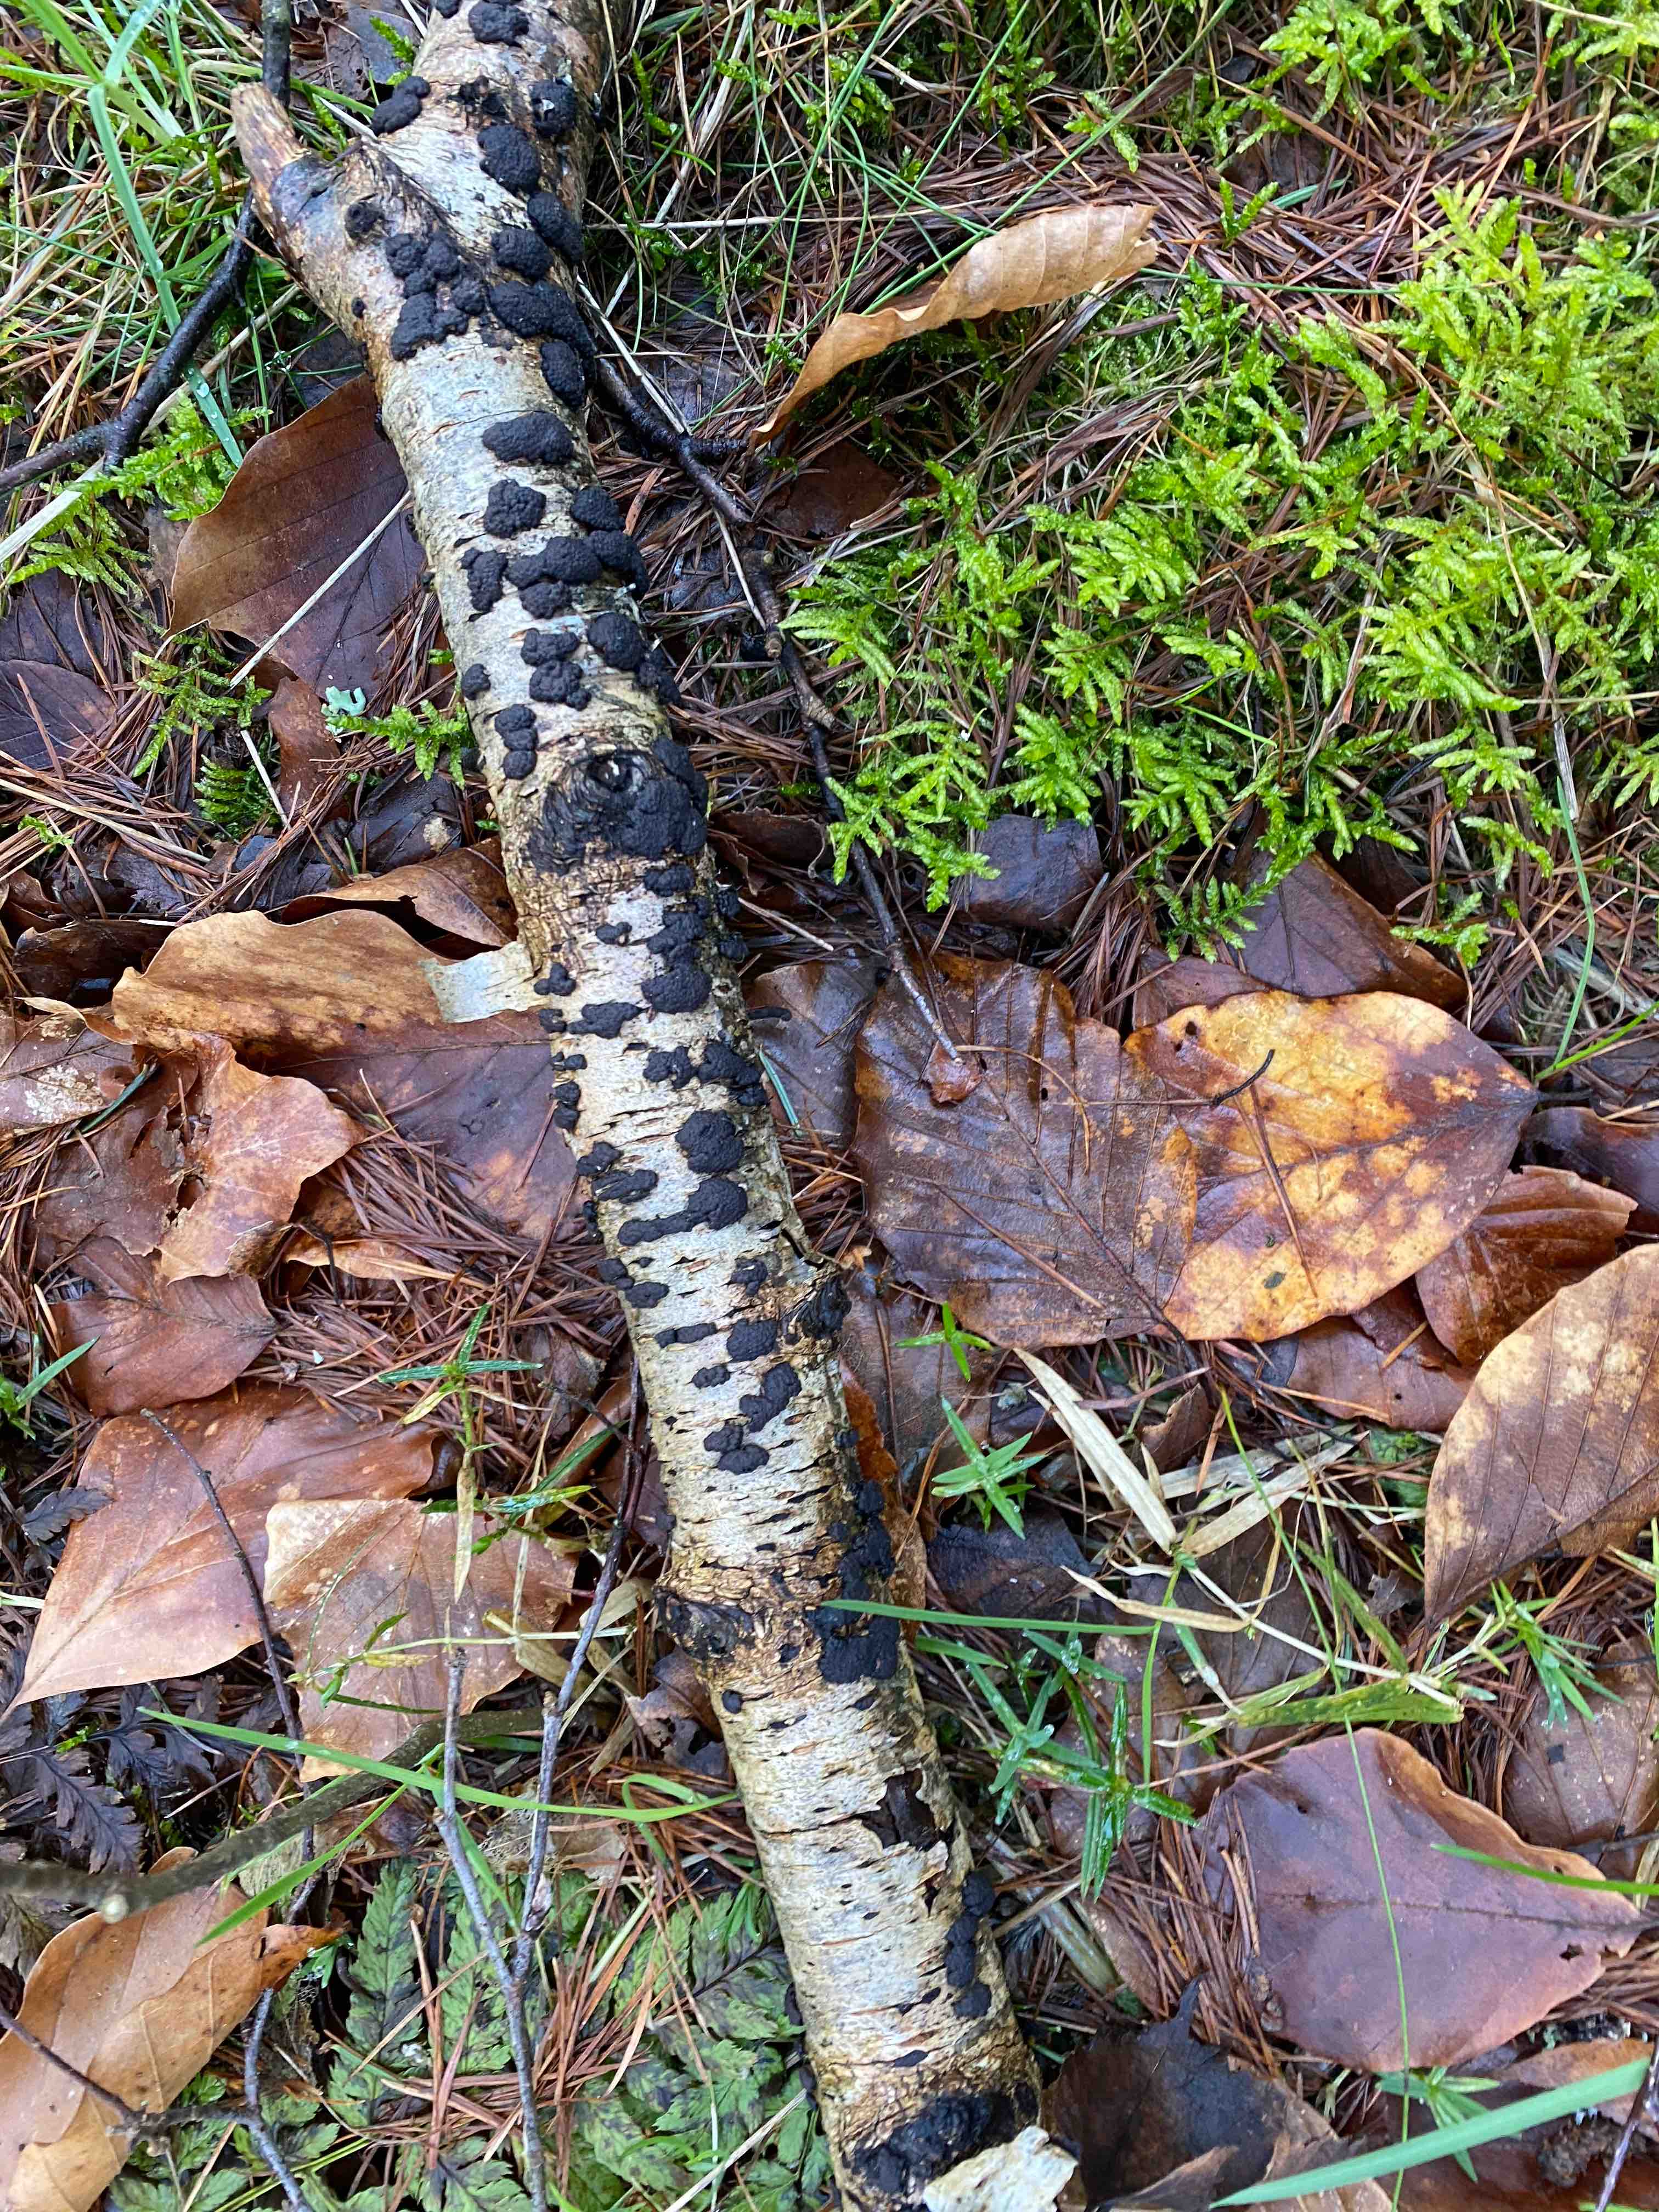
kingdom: Fungi
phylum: Ascomycota
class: Sordariomycetes
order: Xylariales
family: Hypoxylaceae
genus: Jackrogersella
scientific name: Jackrogersella multiformis
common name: foranderlig kulbær
